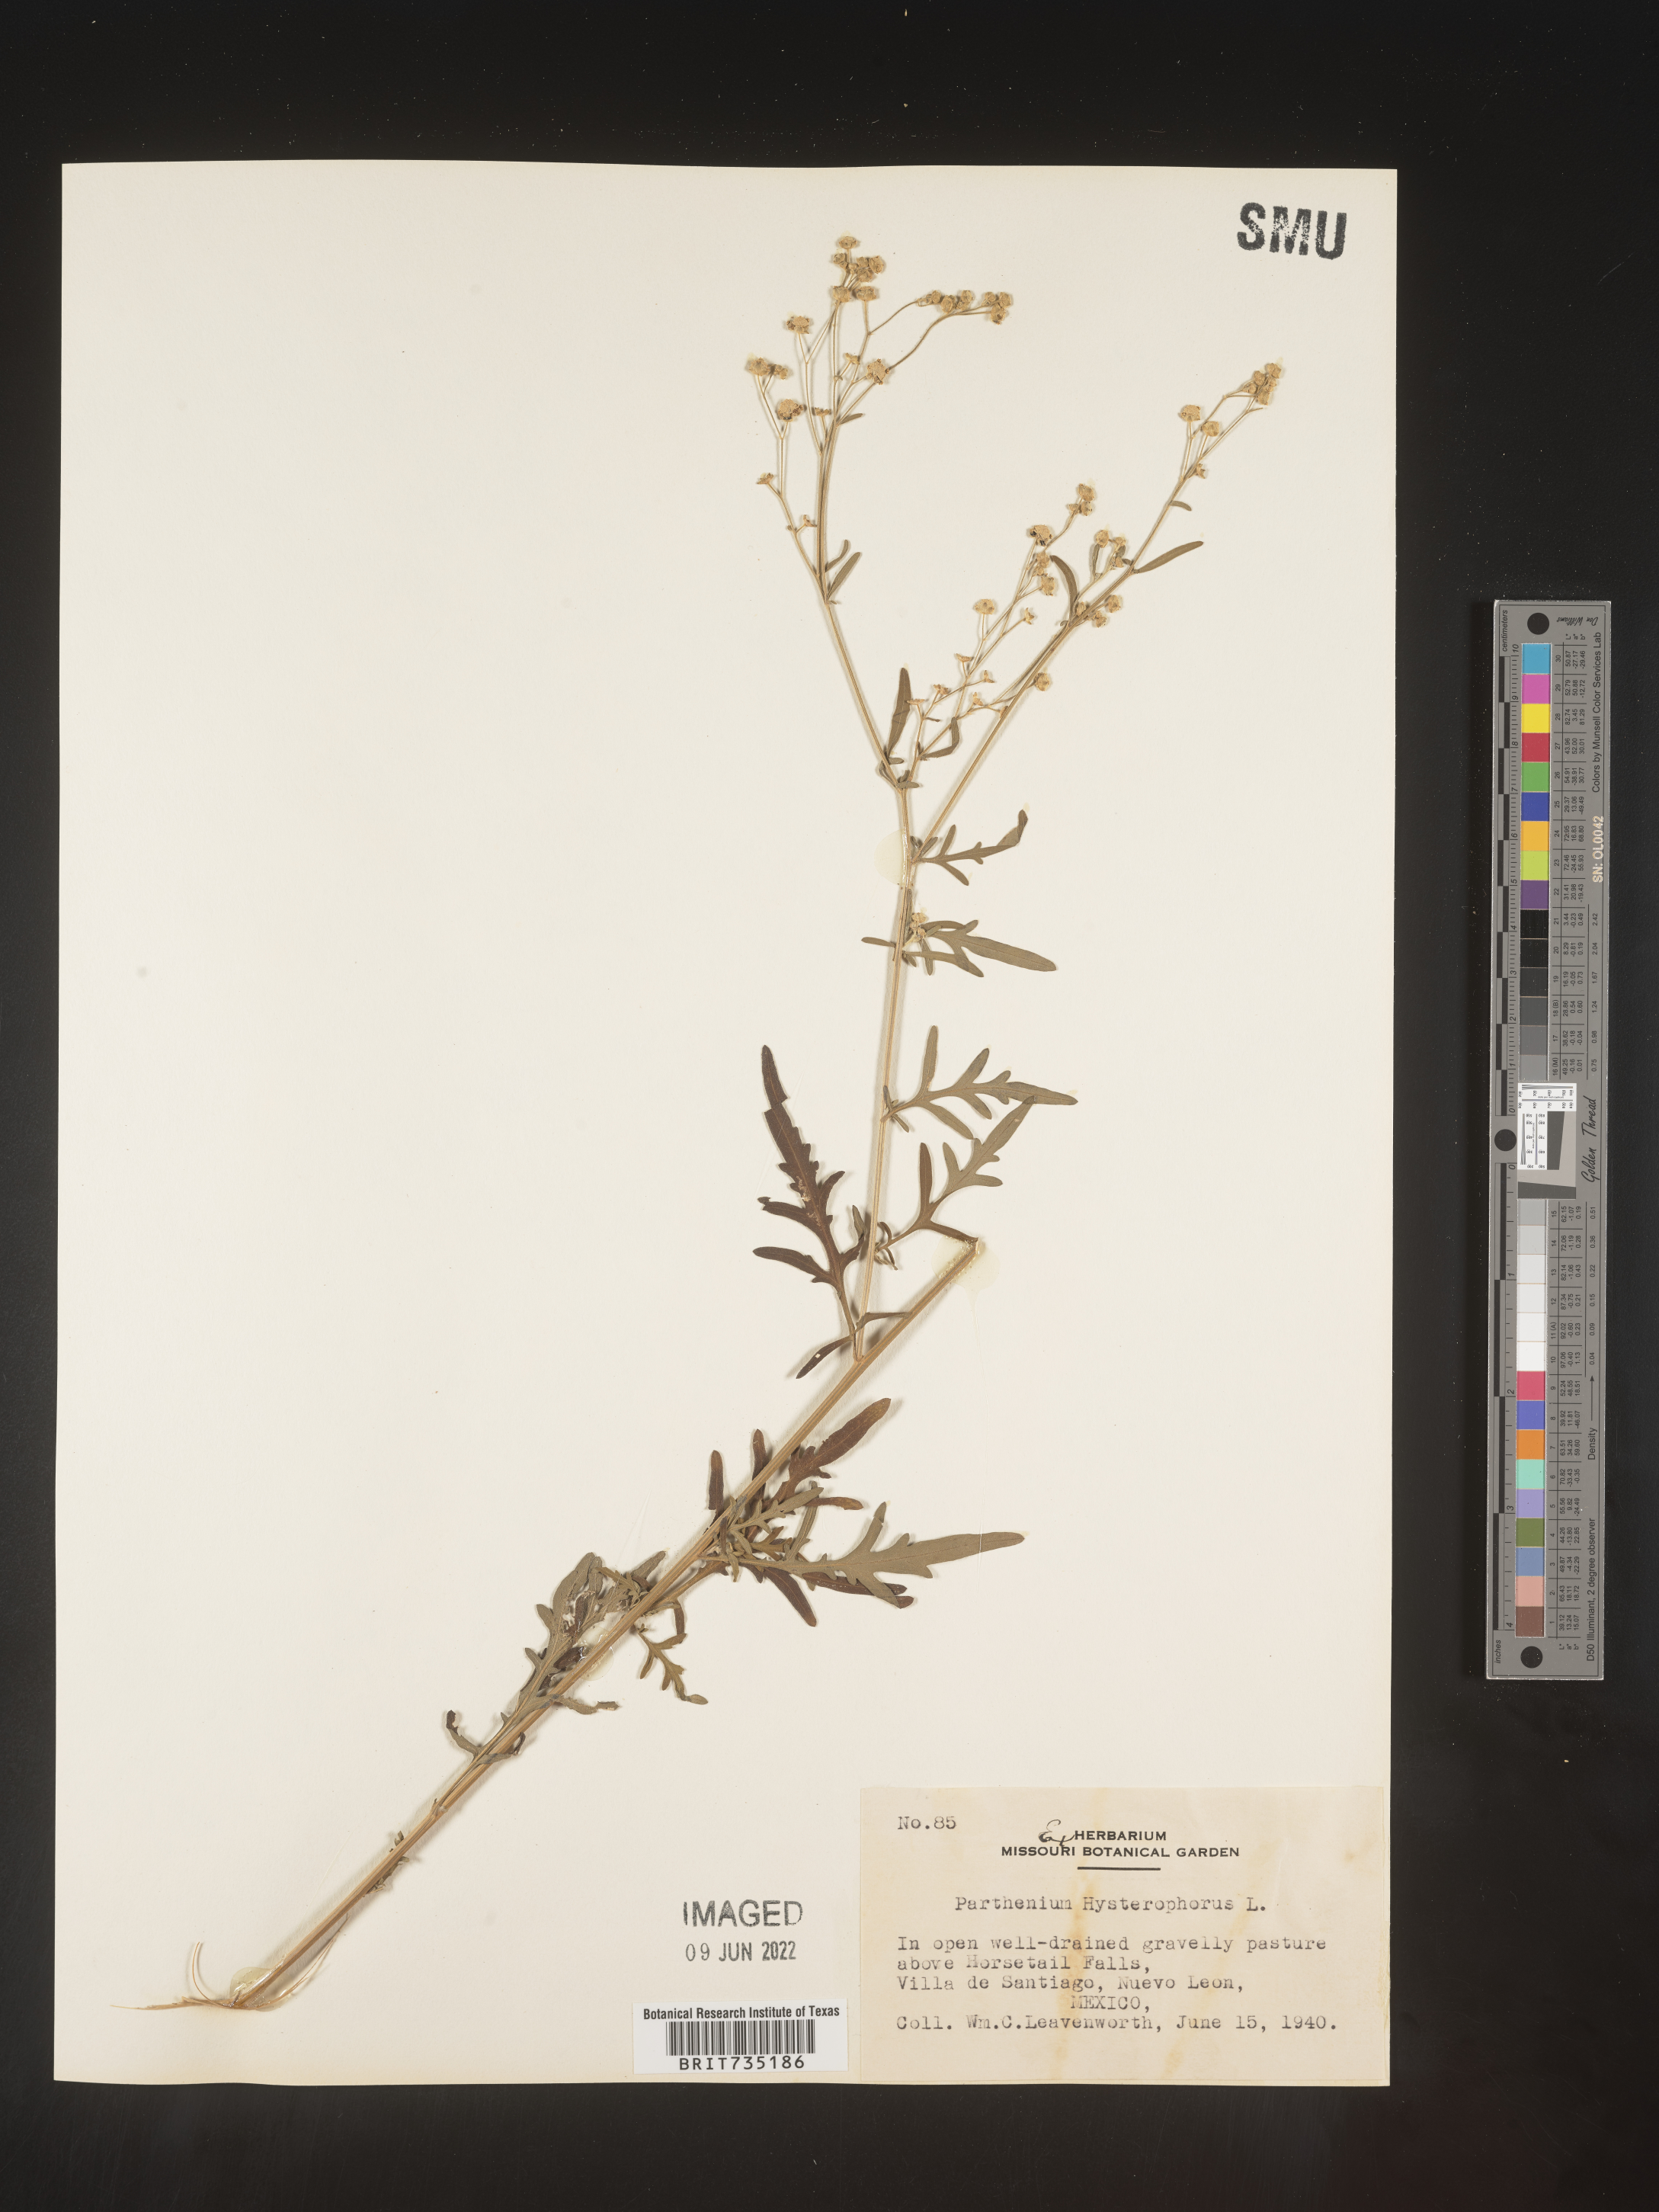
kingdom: Plantae
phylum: Tracheophyta
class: Magnoliopsida
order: Asterales
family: Asteraceae
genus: Parthenium
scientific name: Parthenium hysterophorus
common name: Santa maria feverfew
